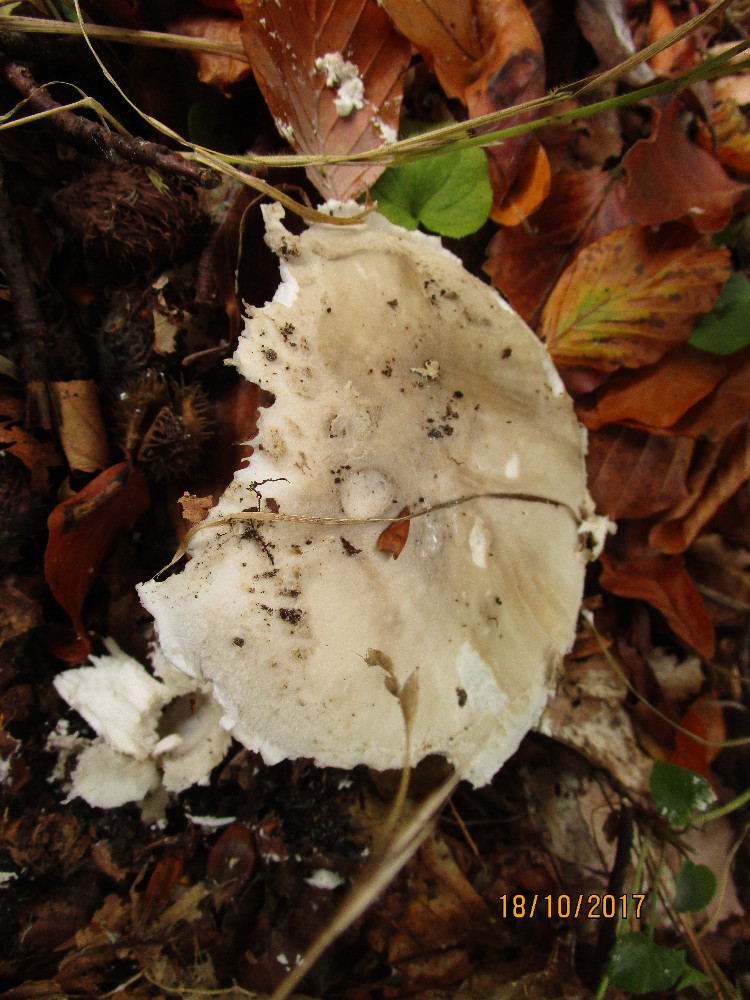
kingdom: Fungi
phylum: Basidiomycota
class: Agaricomycetes
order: Agaricales
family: Amanitaceae
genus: Amanita
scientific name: Amanita
